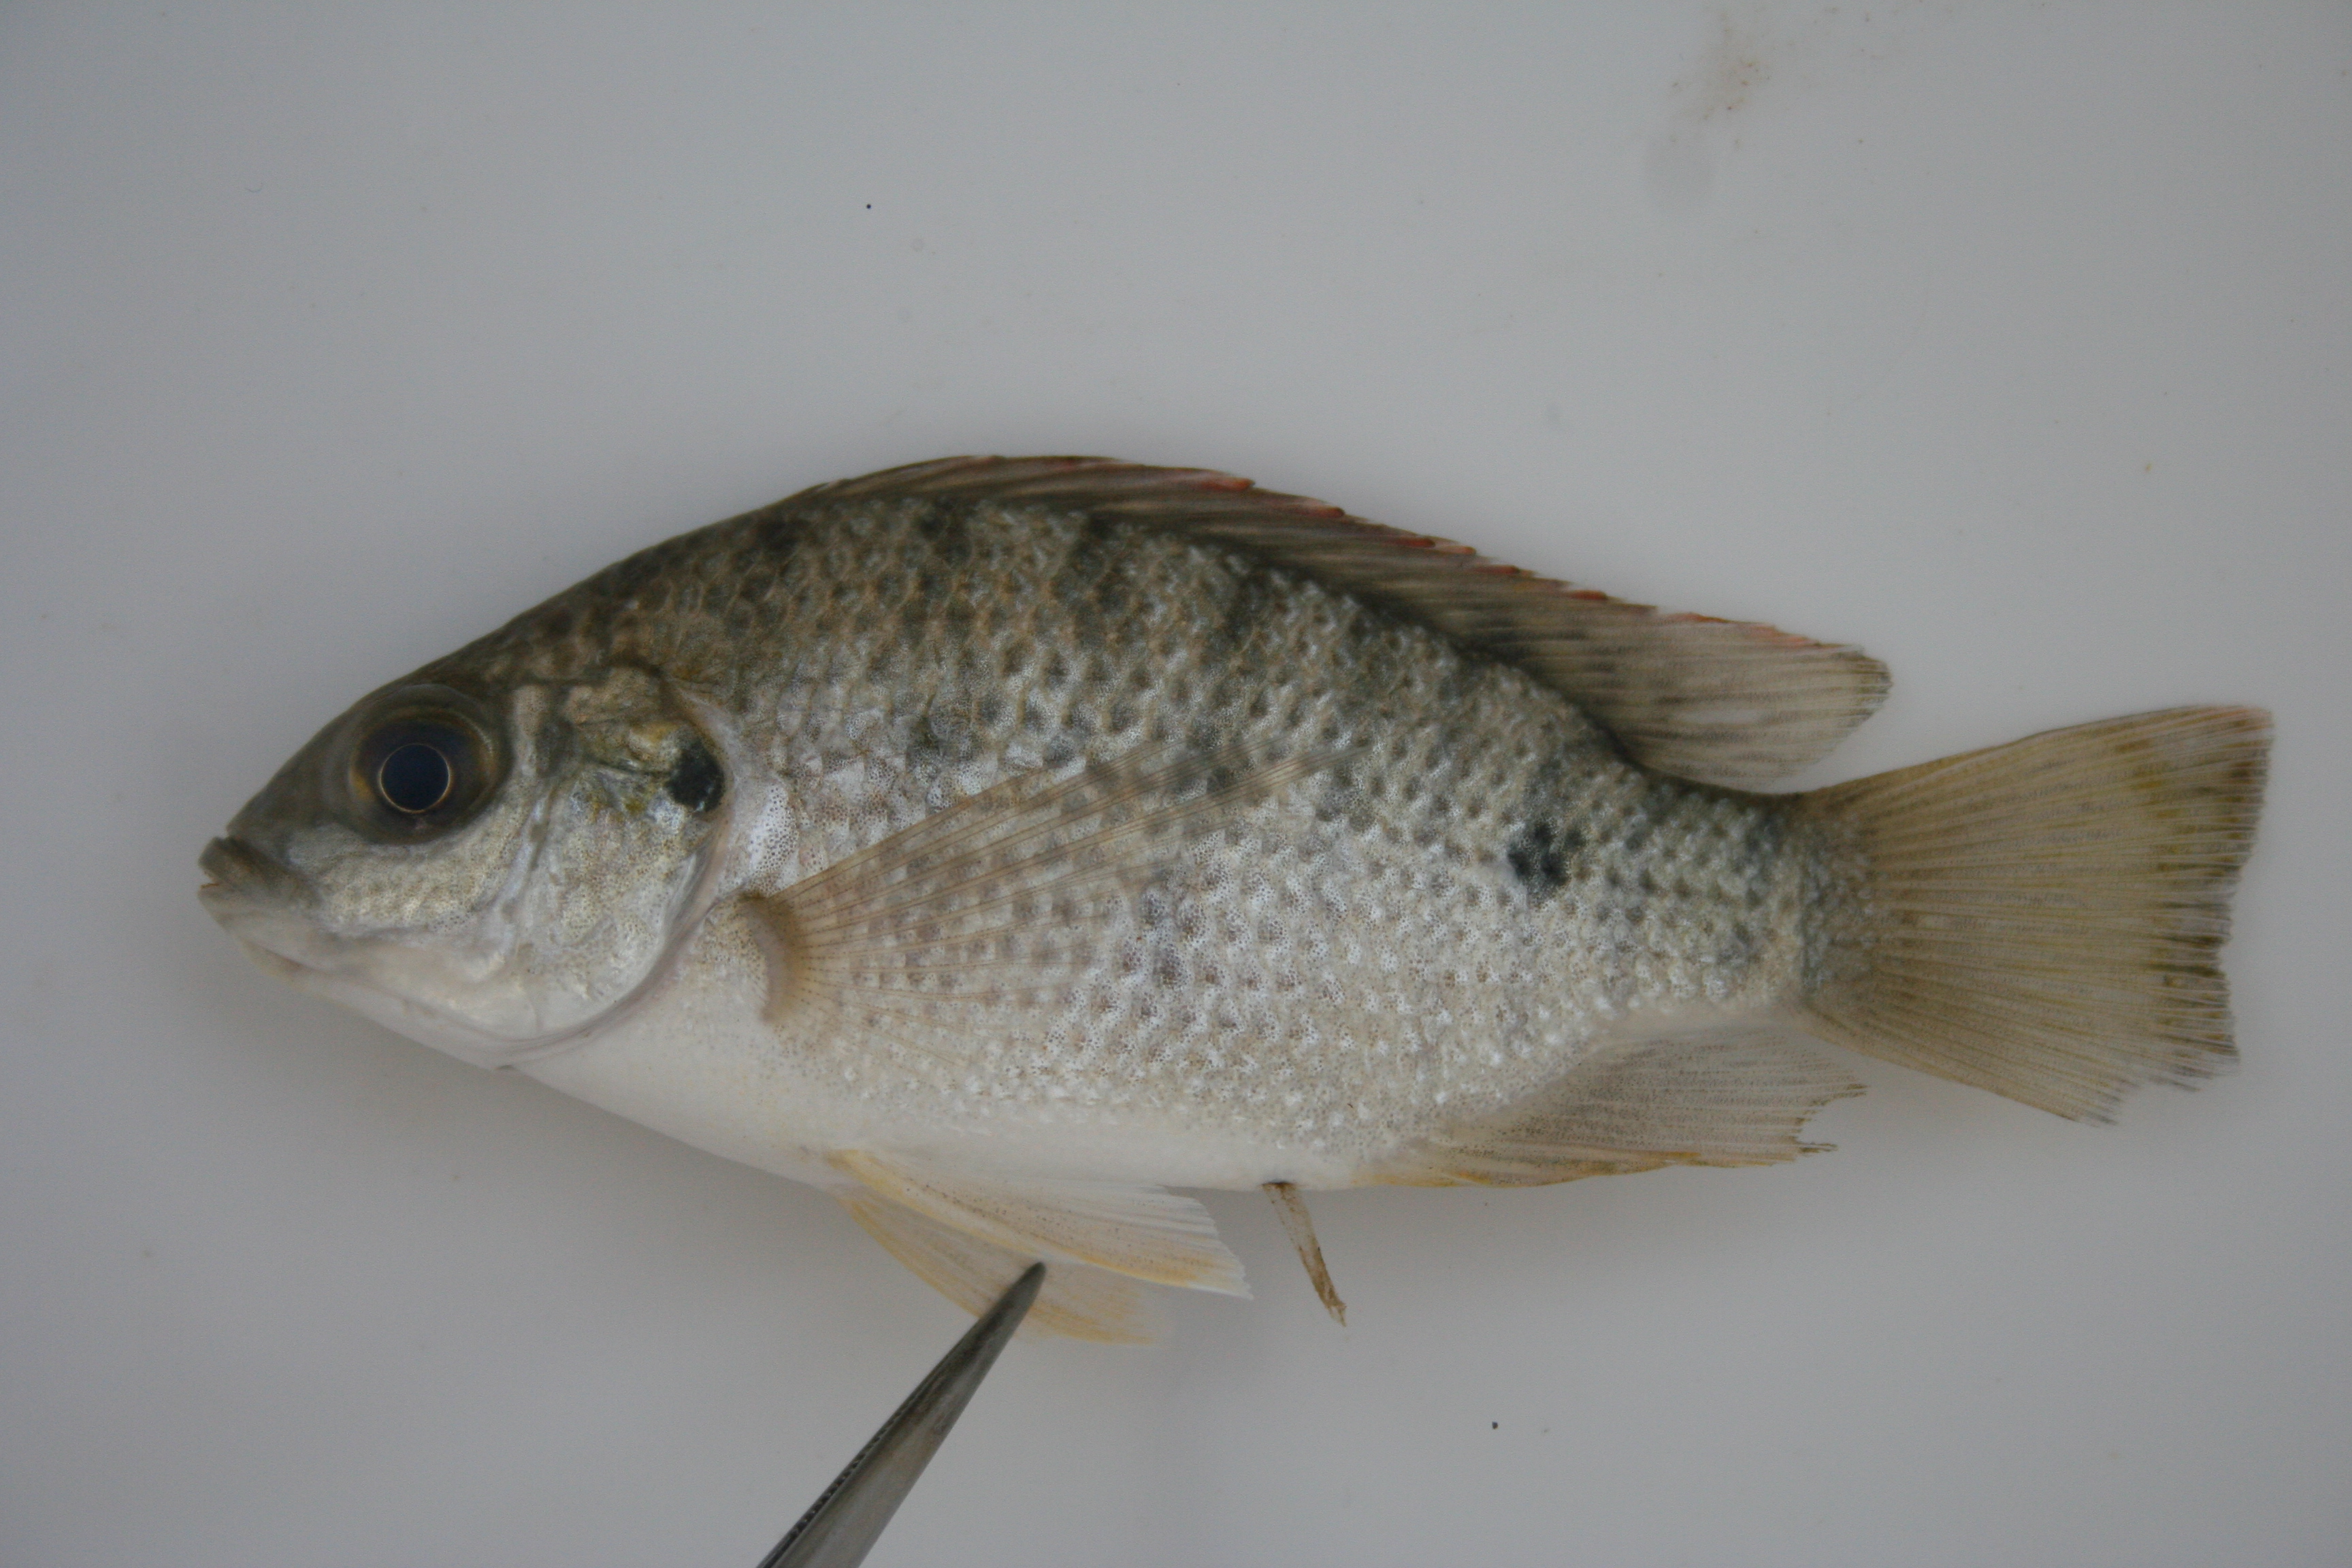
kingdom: Animalia
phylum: Chordata
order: Perciformes
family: Cichlidae
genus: Oreochromis
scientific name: Oreochromis
